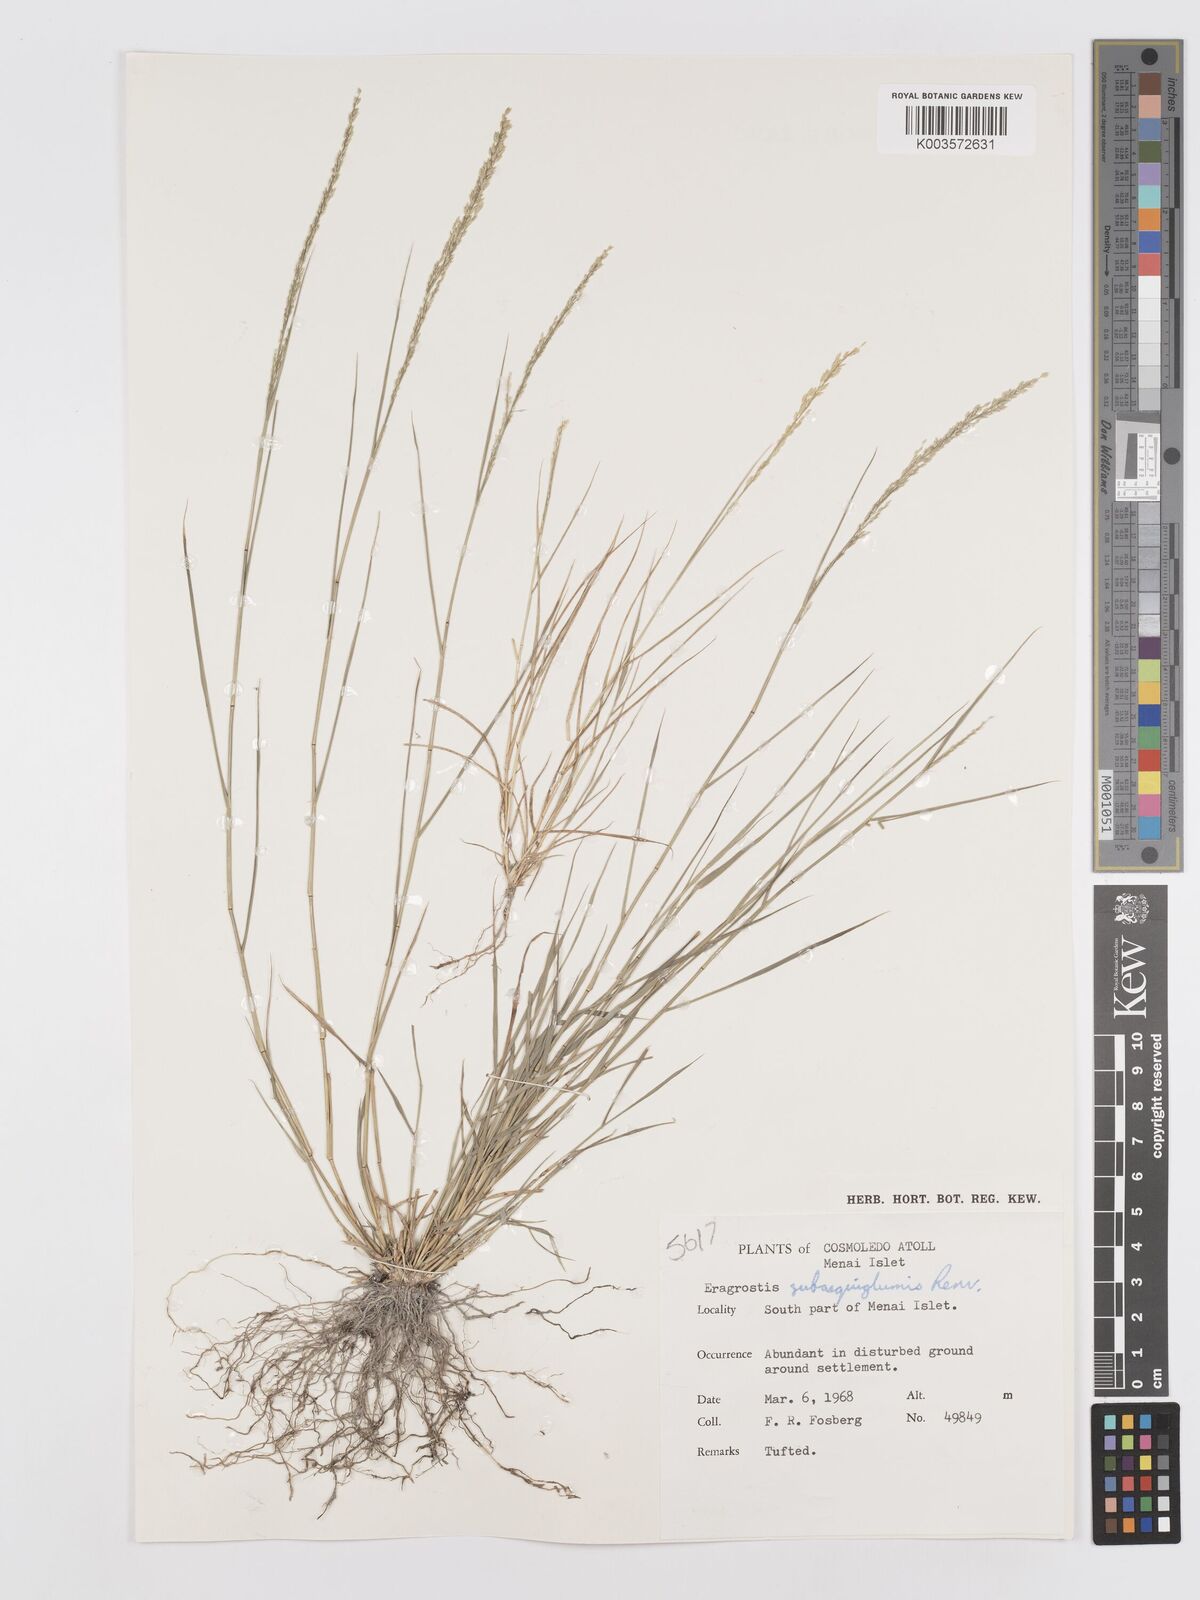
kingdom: Plantae
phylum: Tracheophyta
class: Liliopsida
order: Poales
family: Poaceae
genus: Eragrostis
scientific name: Eragrostis subaequiglumis
